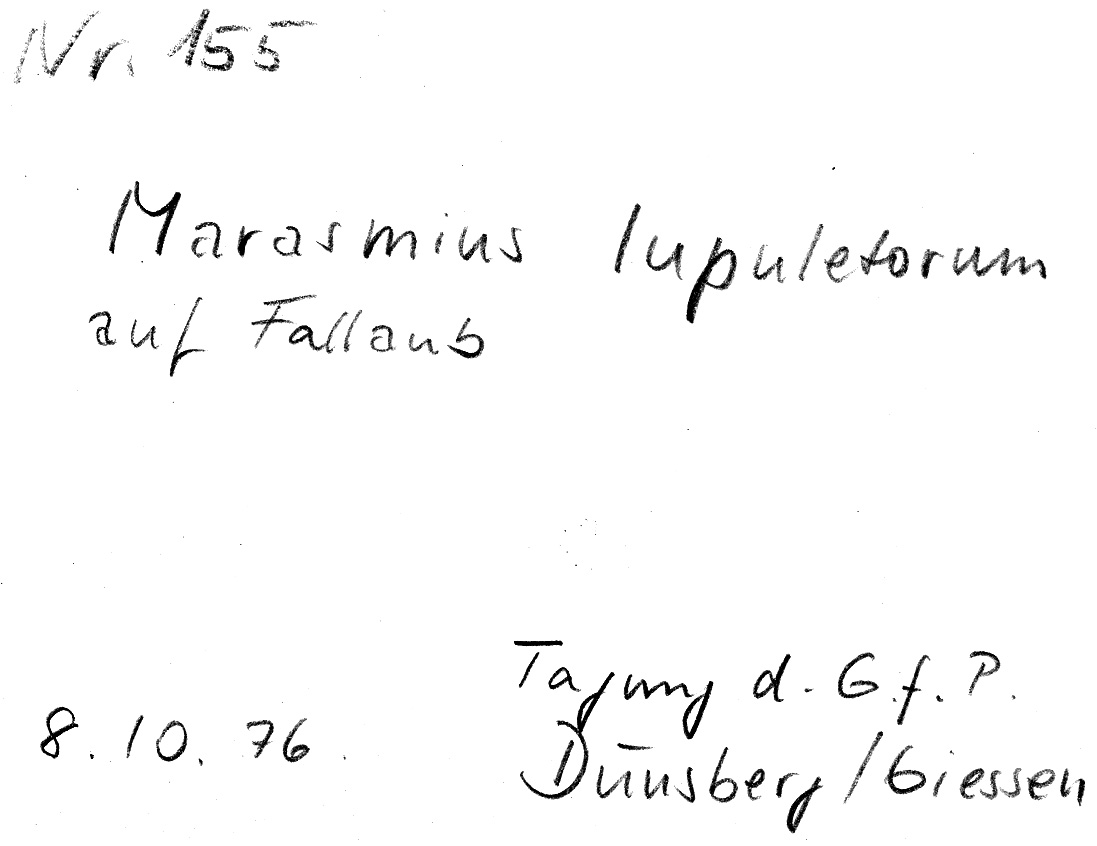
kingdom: Fungi
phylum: Basidiomycota
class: Agaricomycetes
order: Agaricales
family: Omphalotaceae
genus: Gymnopus
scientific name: Gymnopus dryophilus
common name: Penny top
